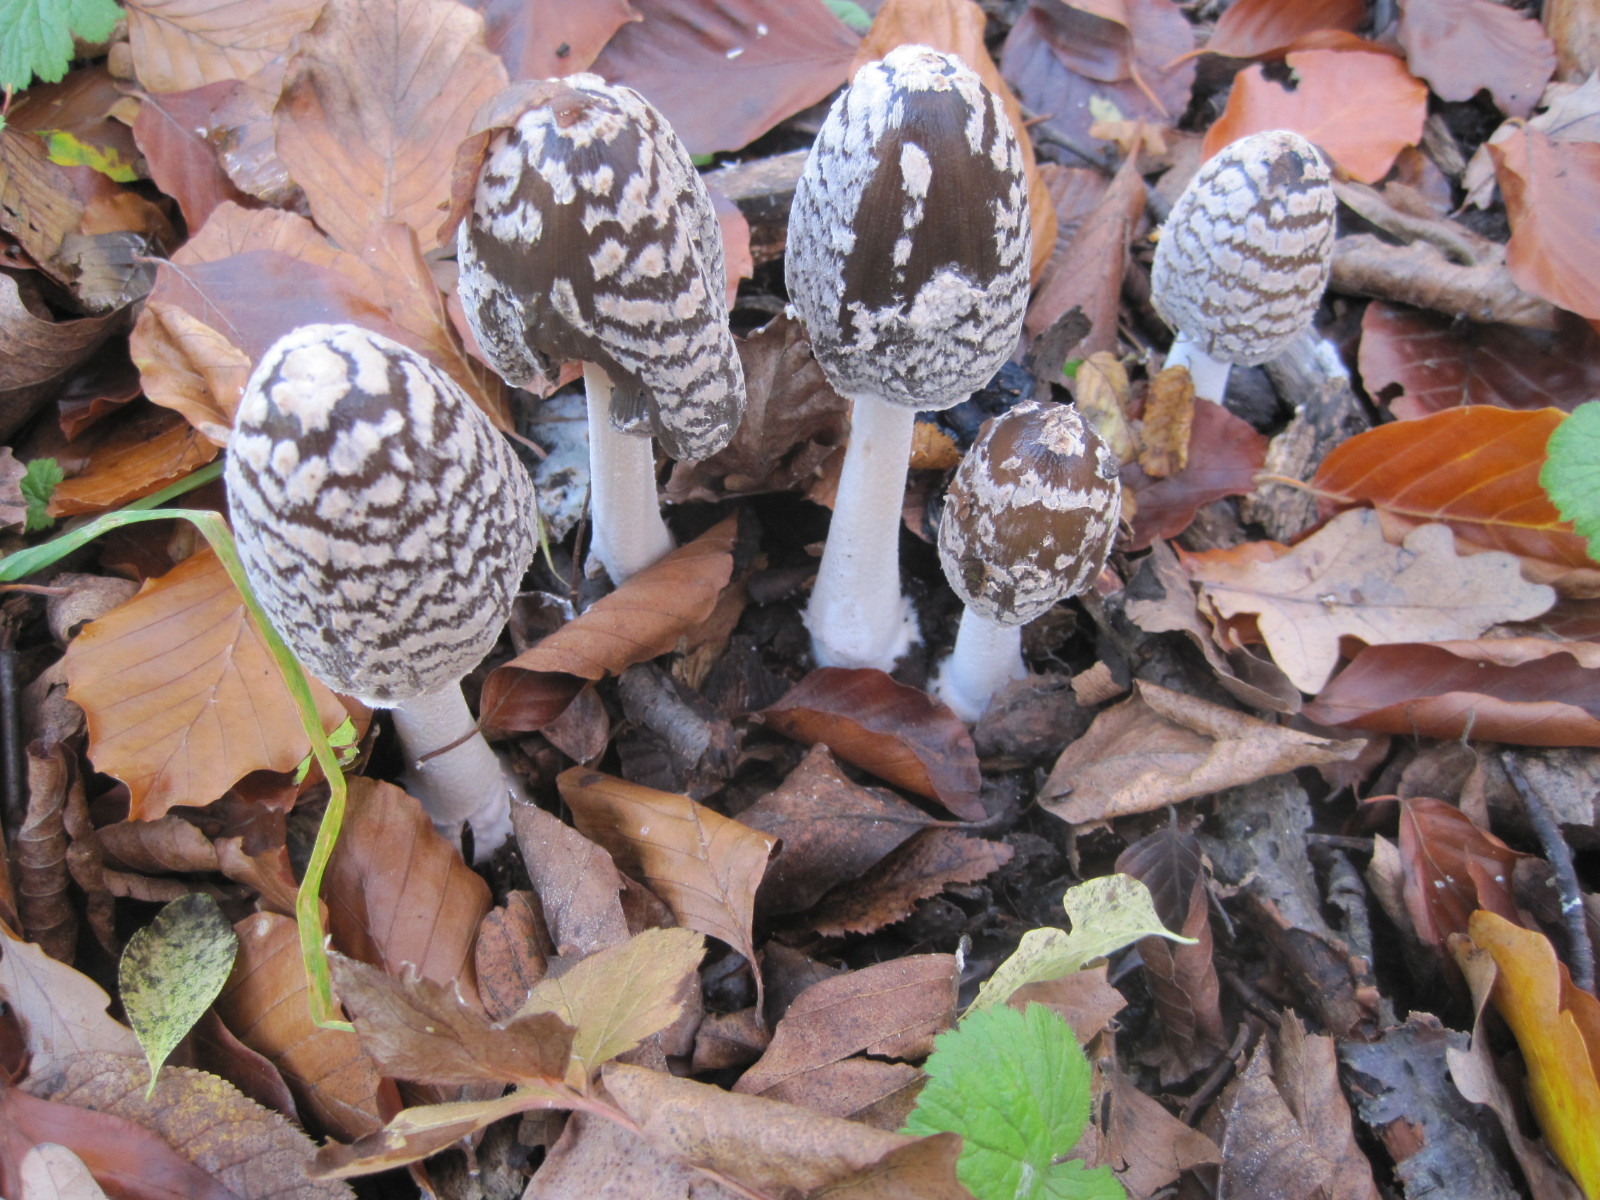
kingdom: Fungi
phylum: Basidiomycota
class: Agaricomycetes
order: Agaricales
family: Psathyrellaceae
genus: Coprinopsis
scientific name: Coprinopsis picacea
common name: skade-blækhat
